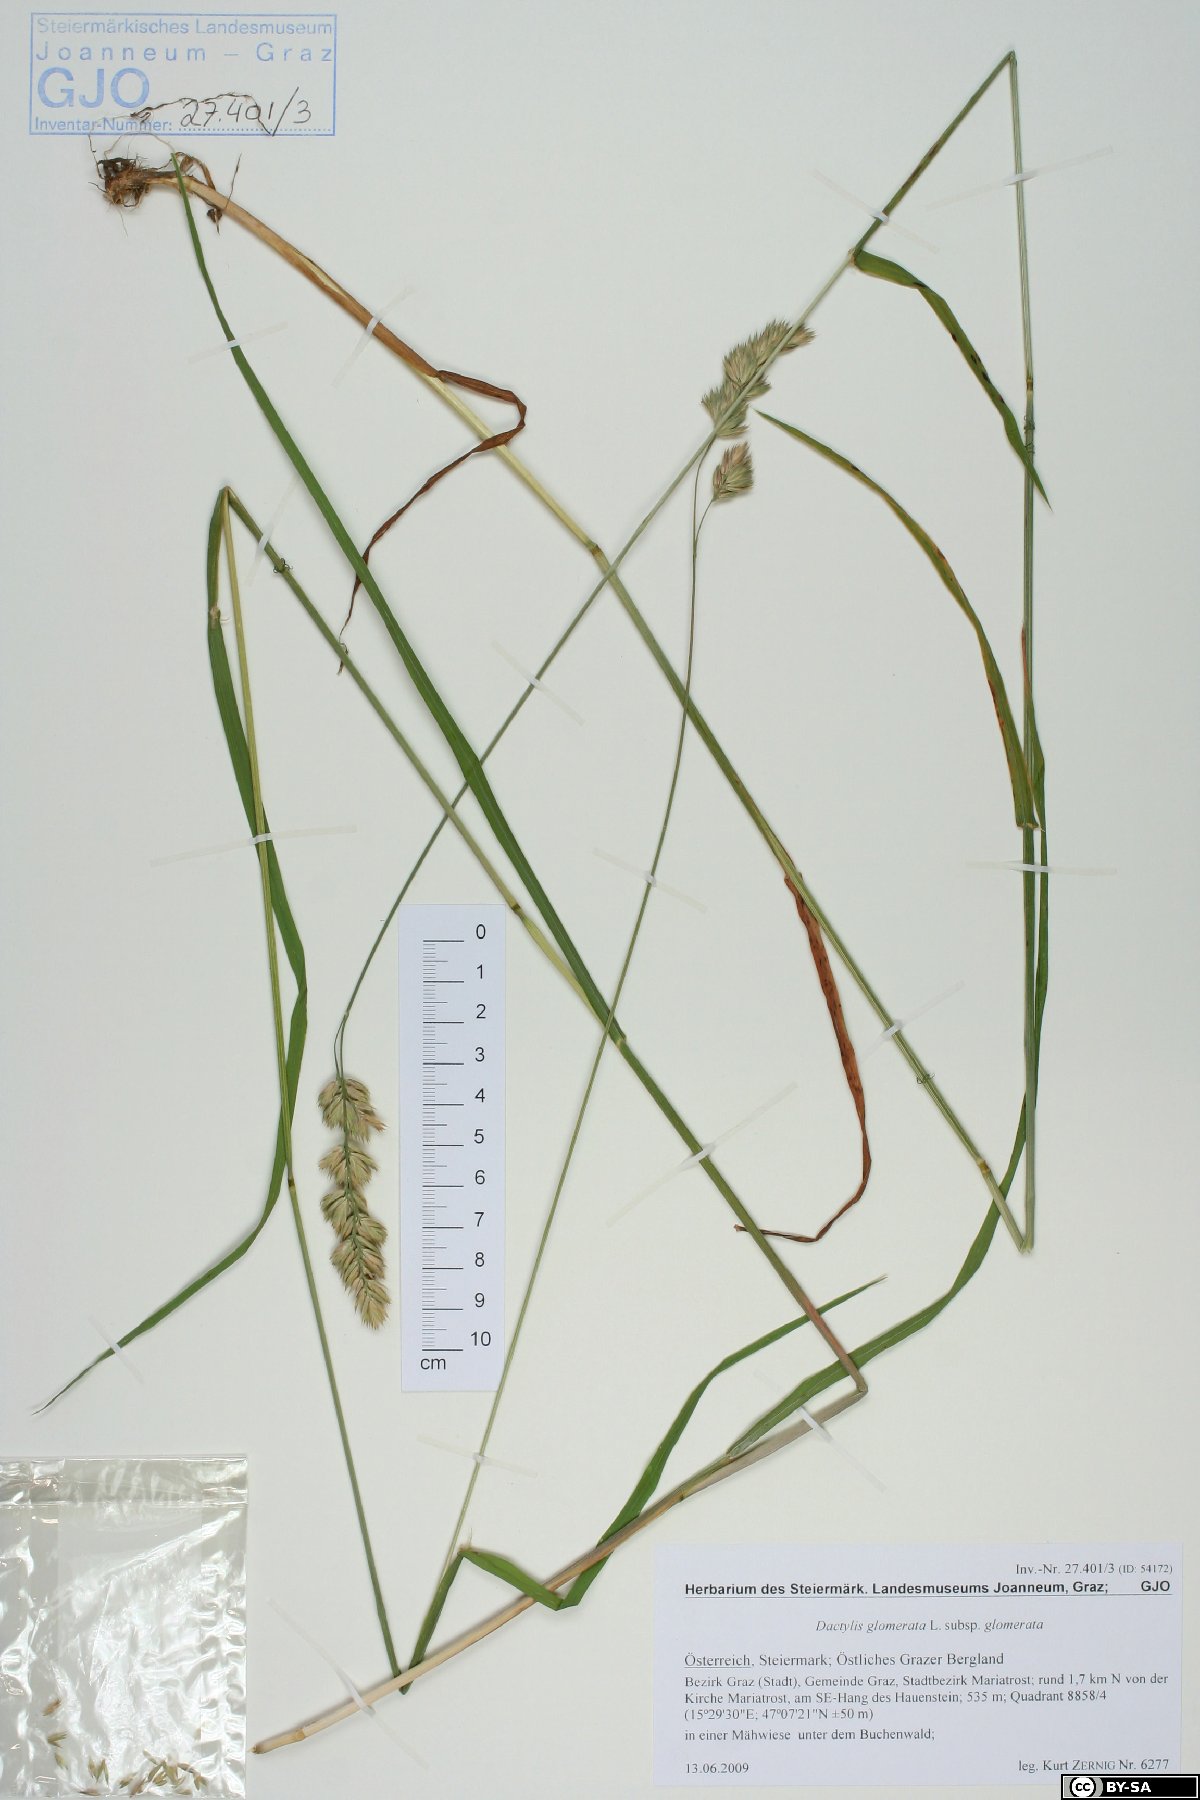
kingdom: Plantae
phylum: Tracheophyta
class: Liliopsida
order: Poales
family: Poaceae
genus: Dactylis
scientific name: Dactylis glomerata
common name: Orchardgrass
